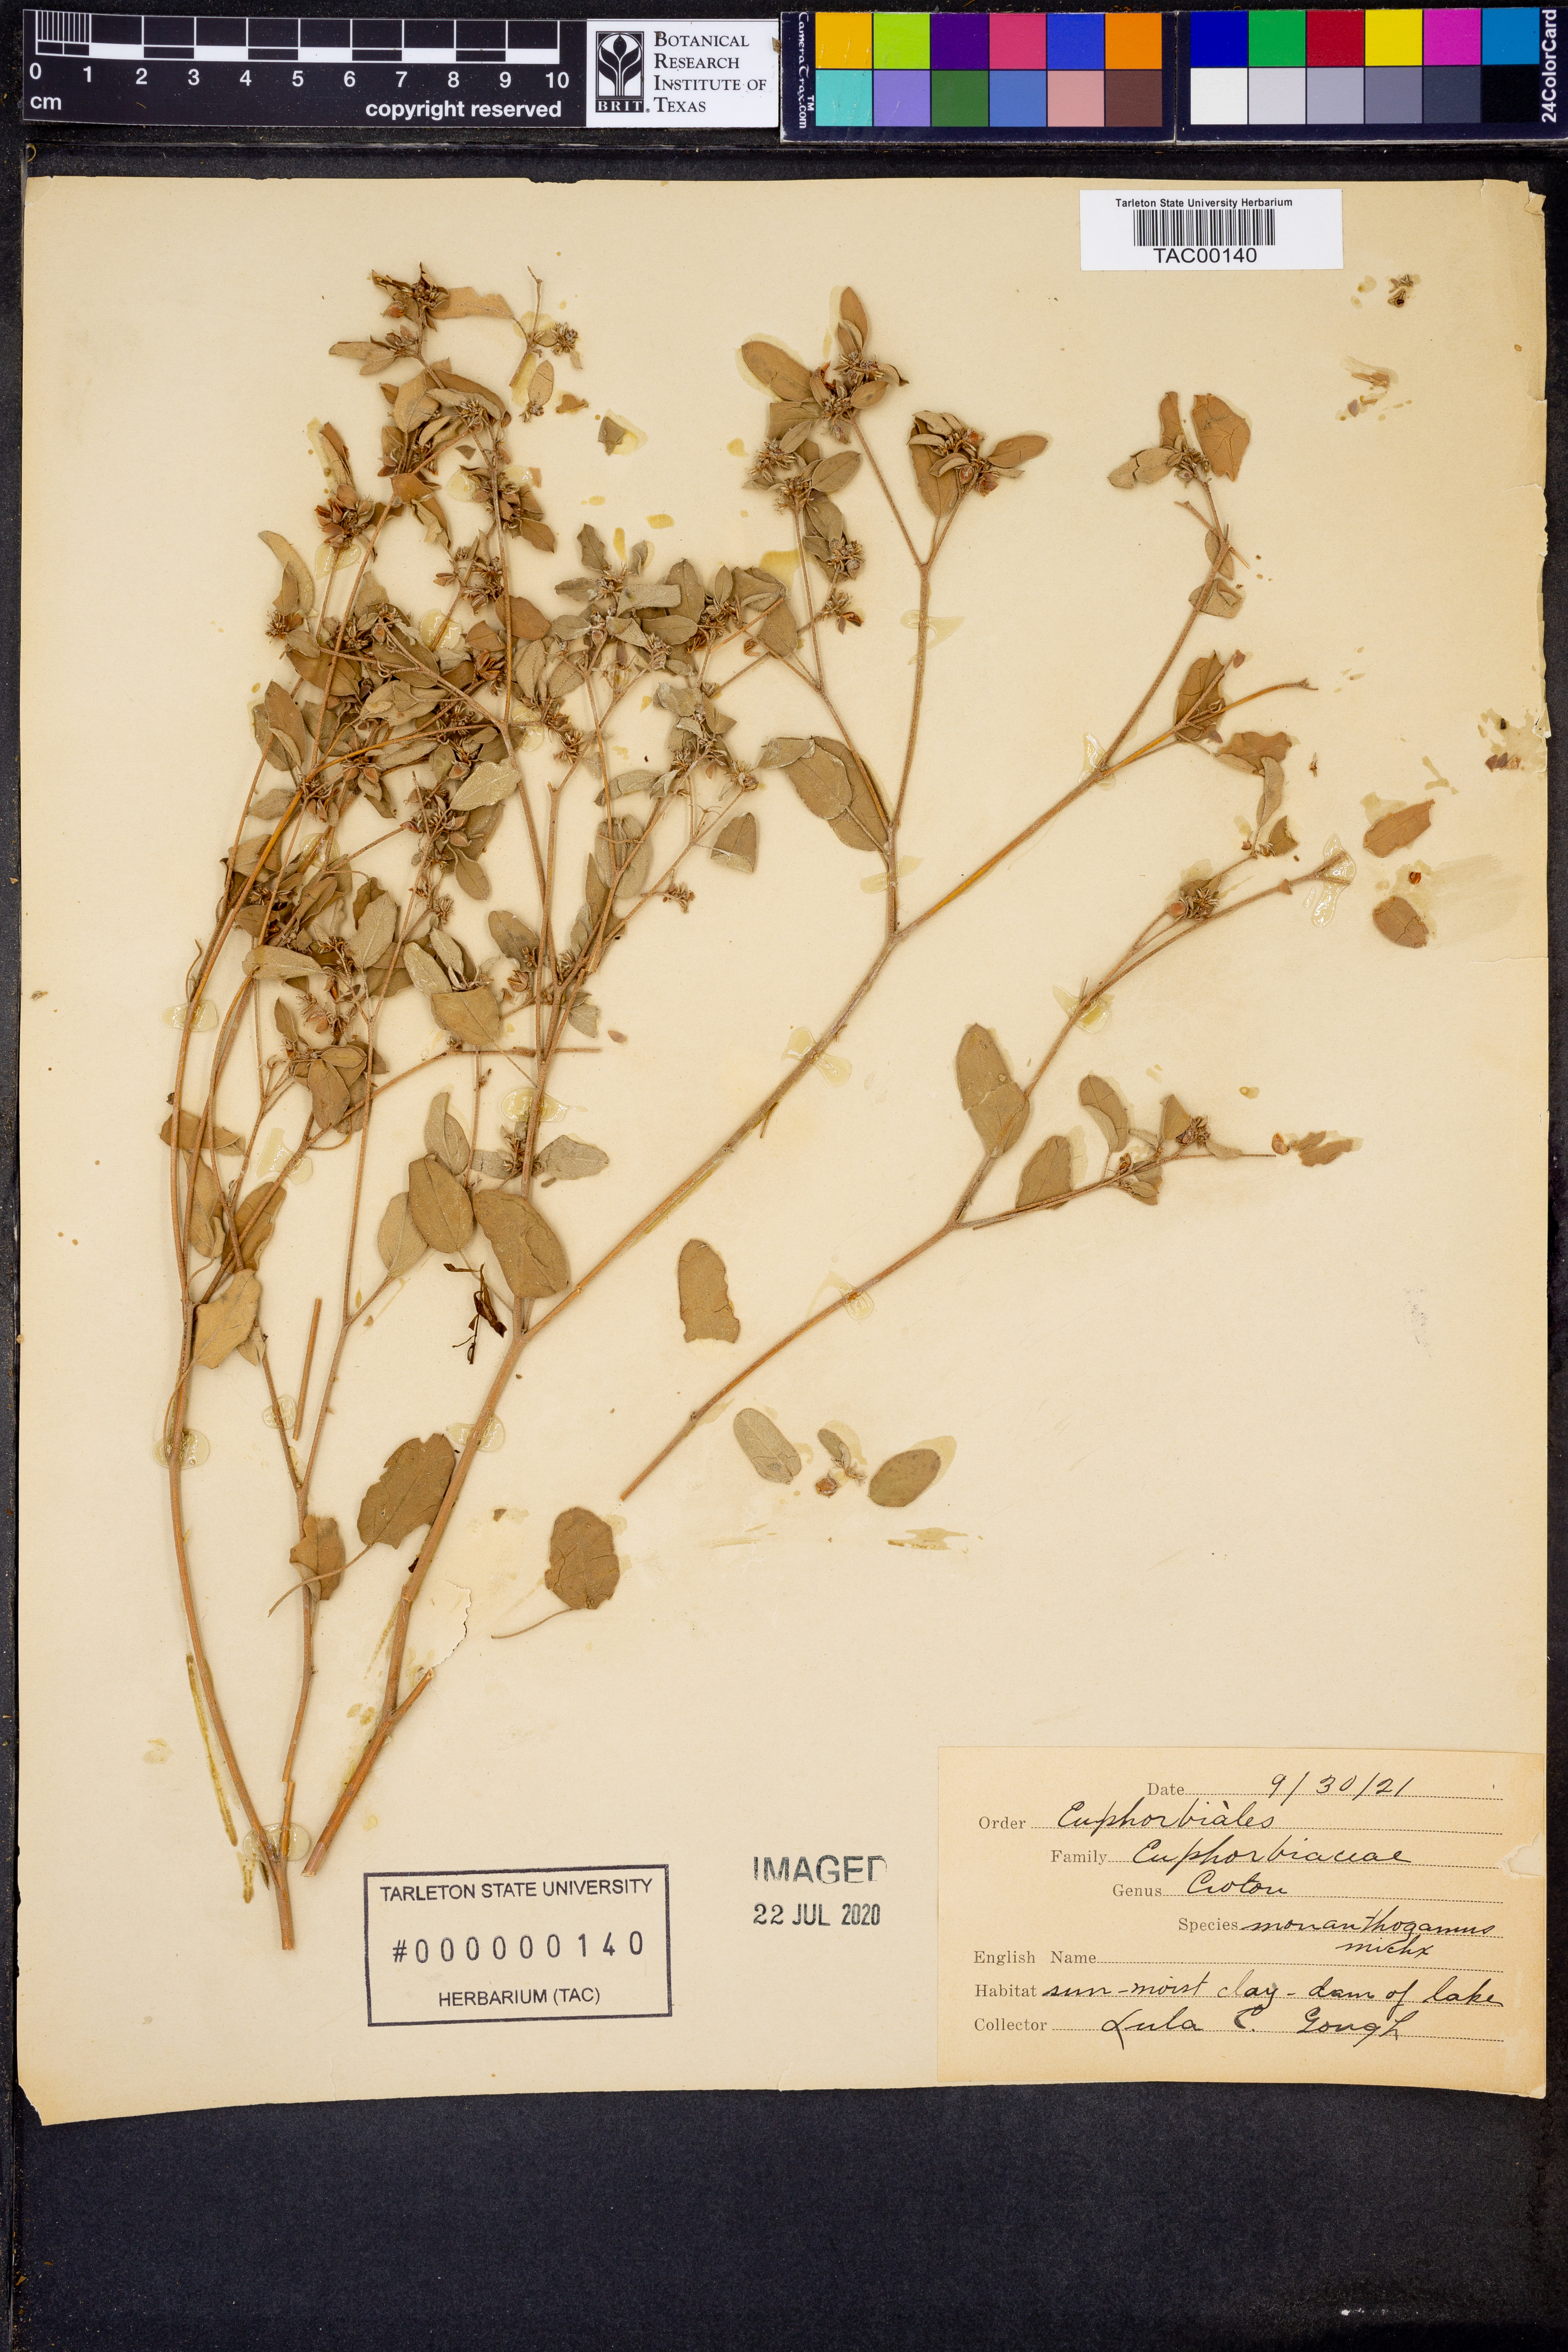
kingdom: Plantae
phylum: Tracheophyta
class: Magnoliopsida
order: Malpighiales
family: Euphorbiaceae
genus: Croton
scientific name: Croton monanthogynus
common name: One-seed croton
